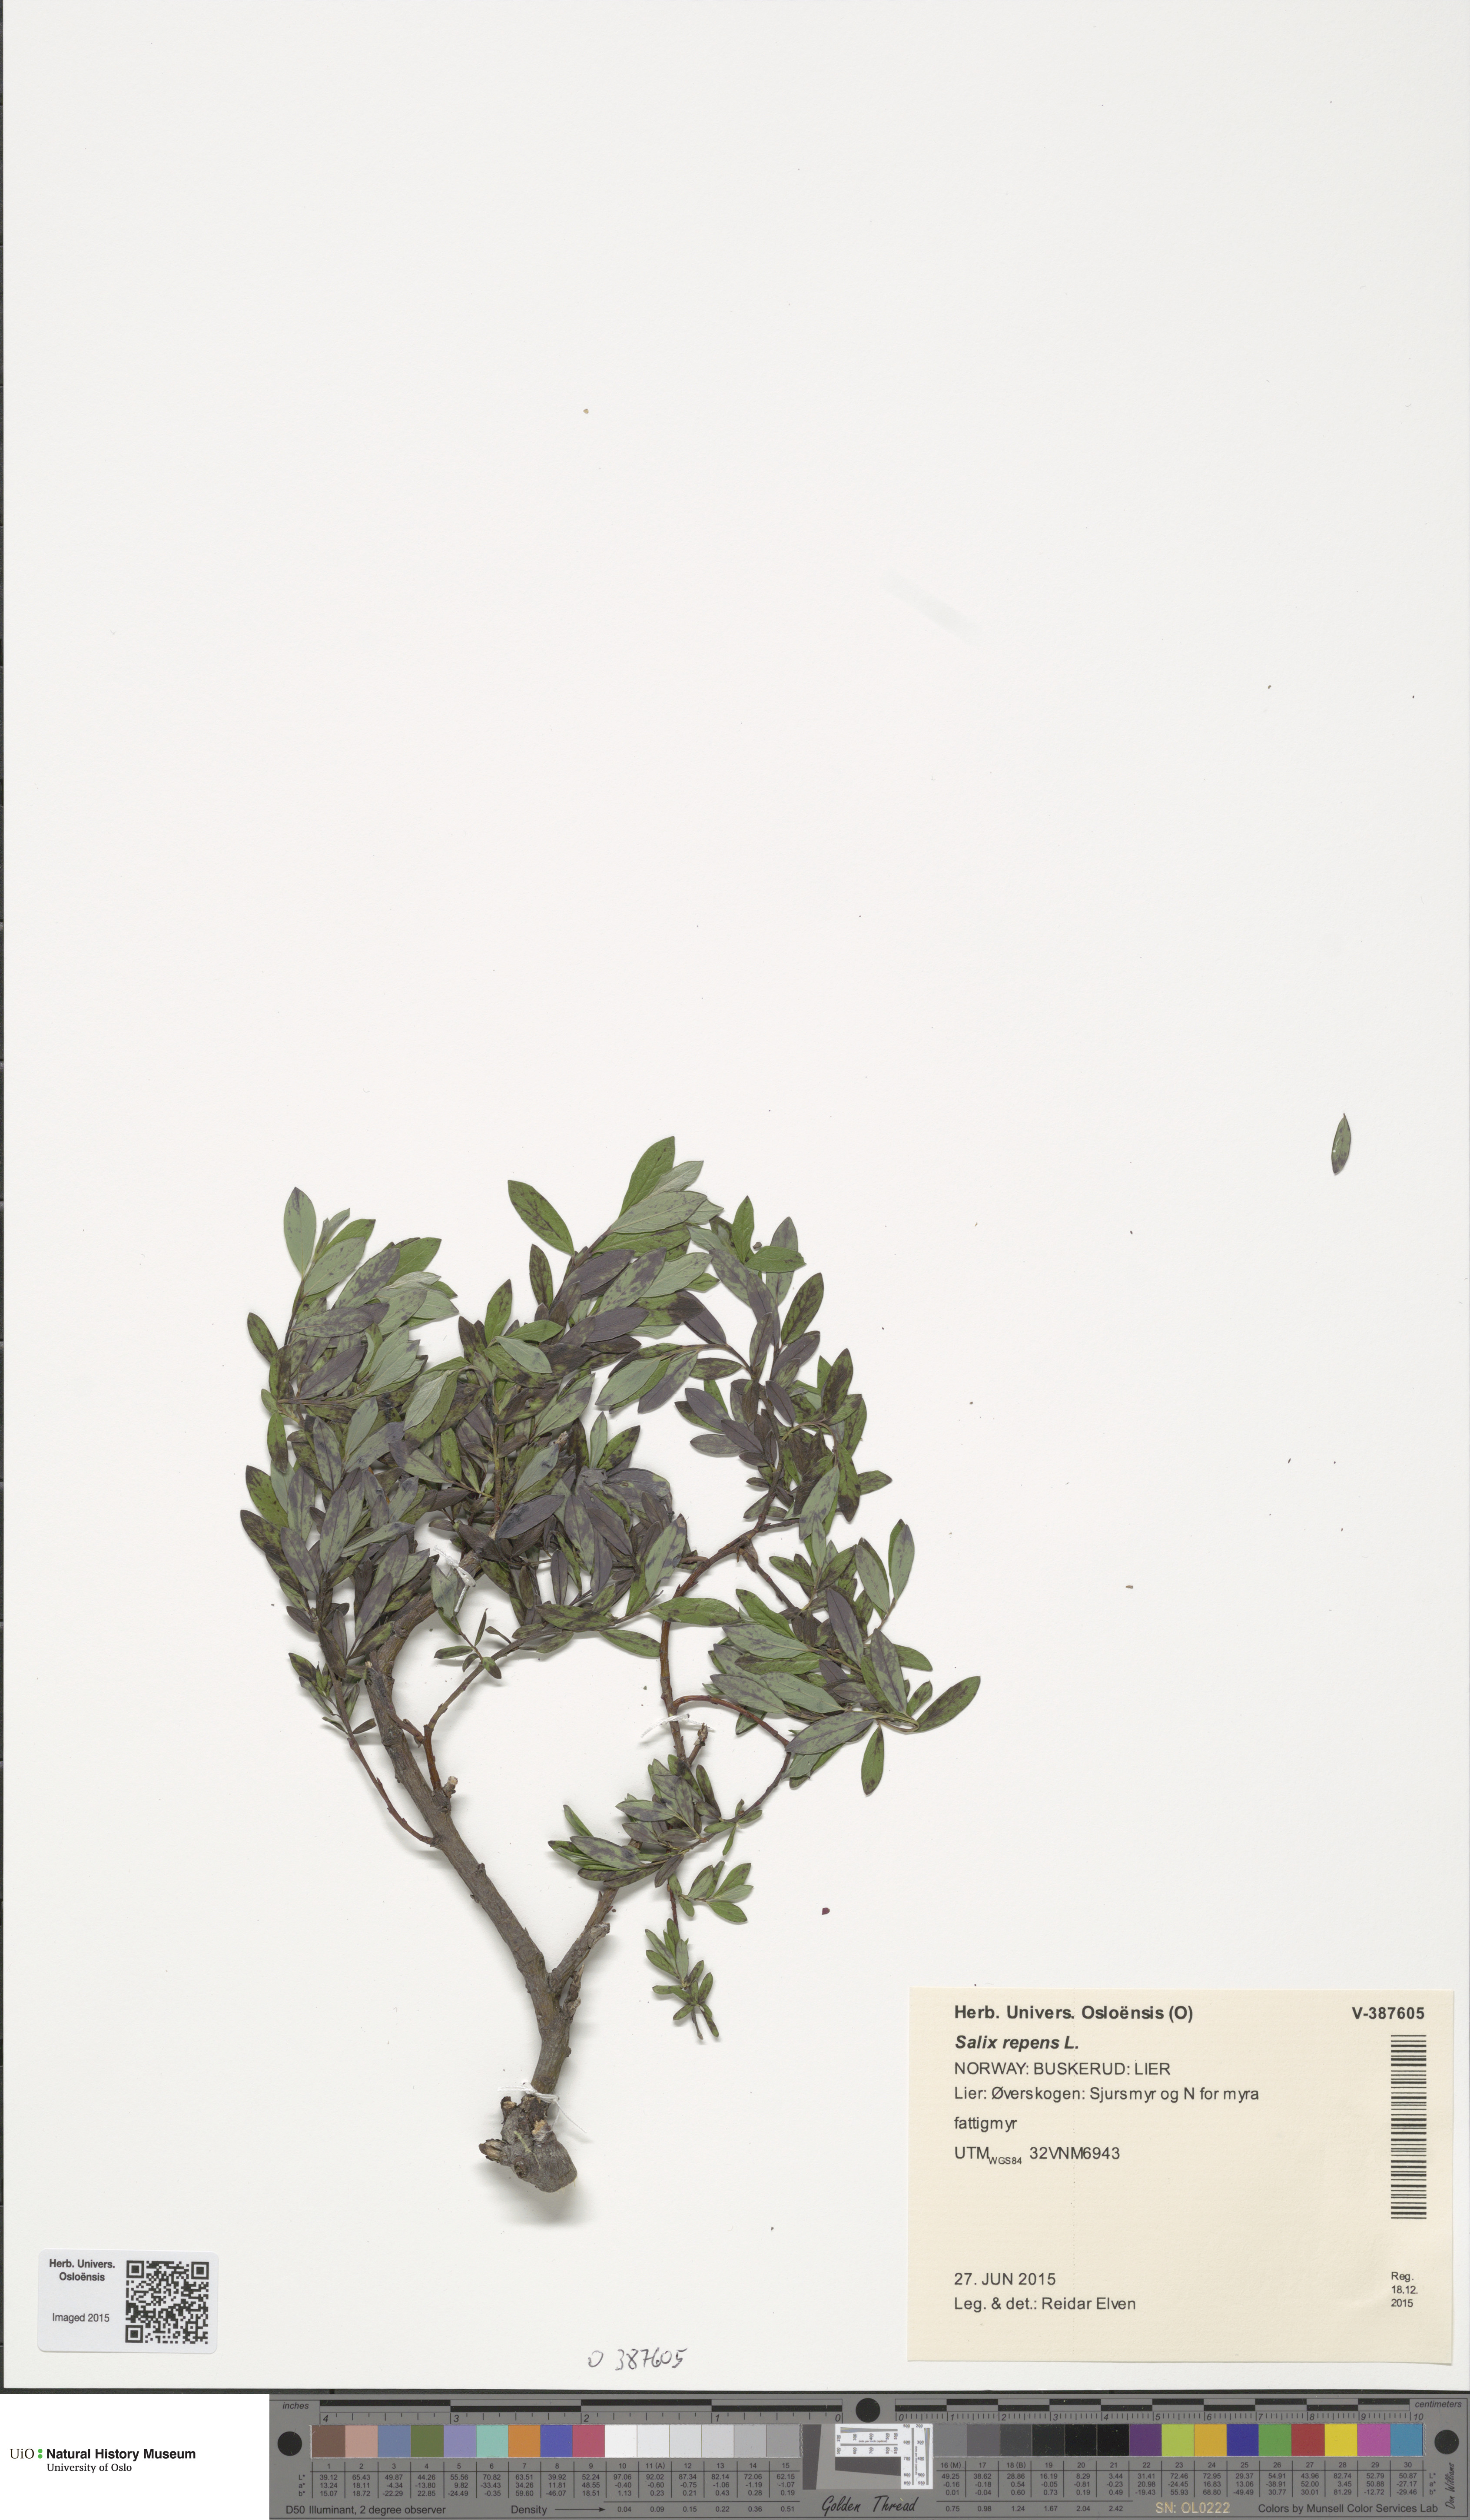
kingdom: Plantae
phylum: Tracheophyta
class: Magnoliopsida
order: Malpighiales
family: Salicaceae
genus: Salix
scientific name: Salix repens
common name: Creeping willow
